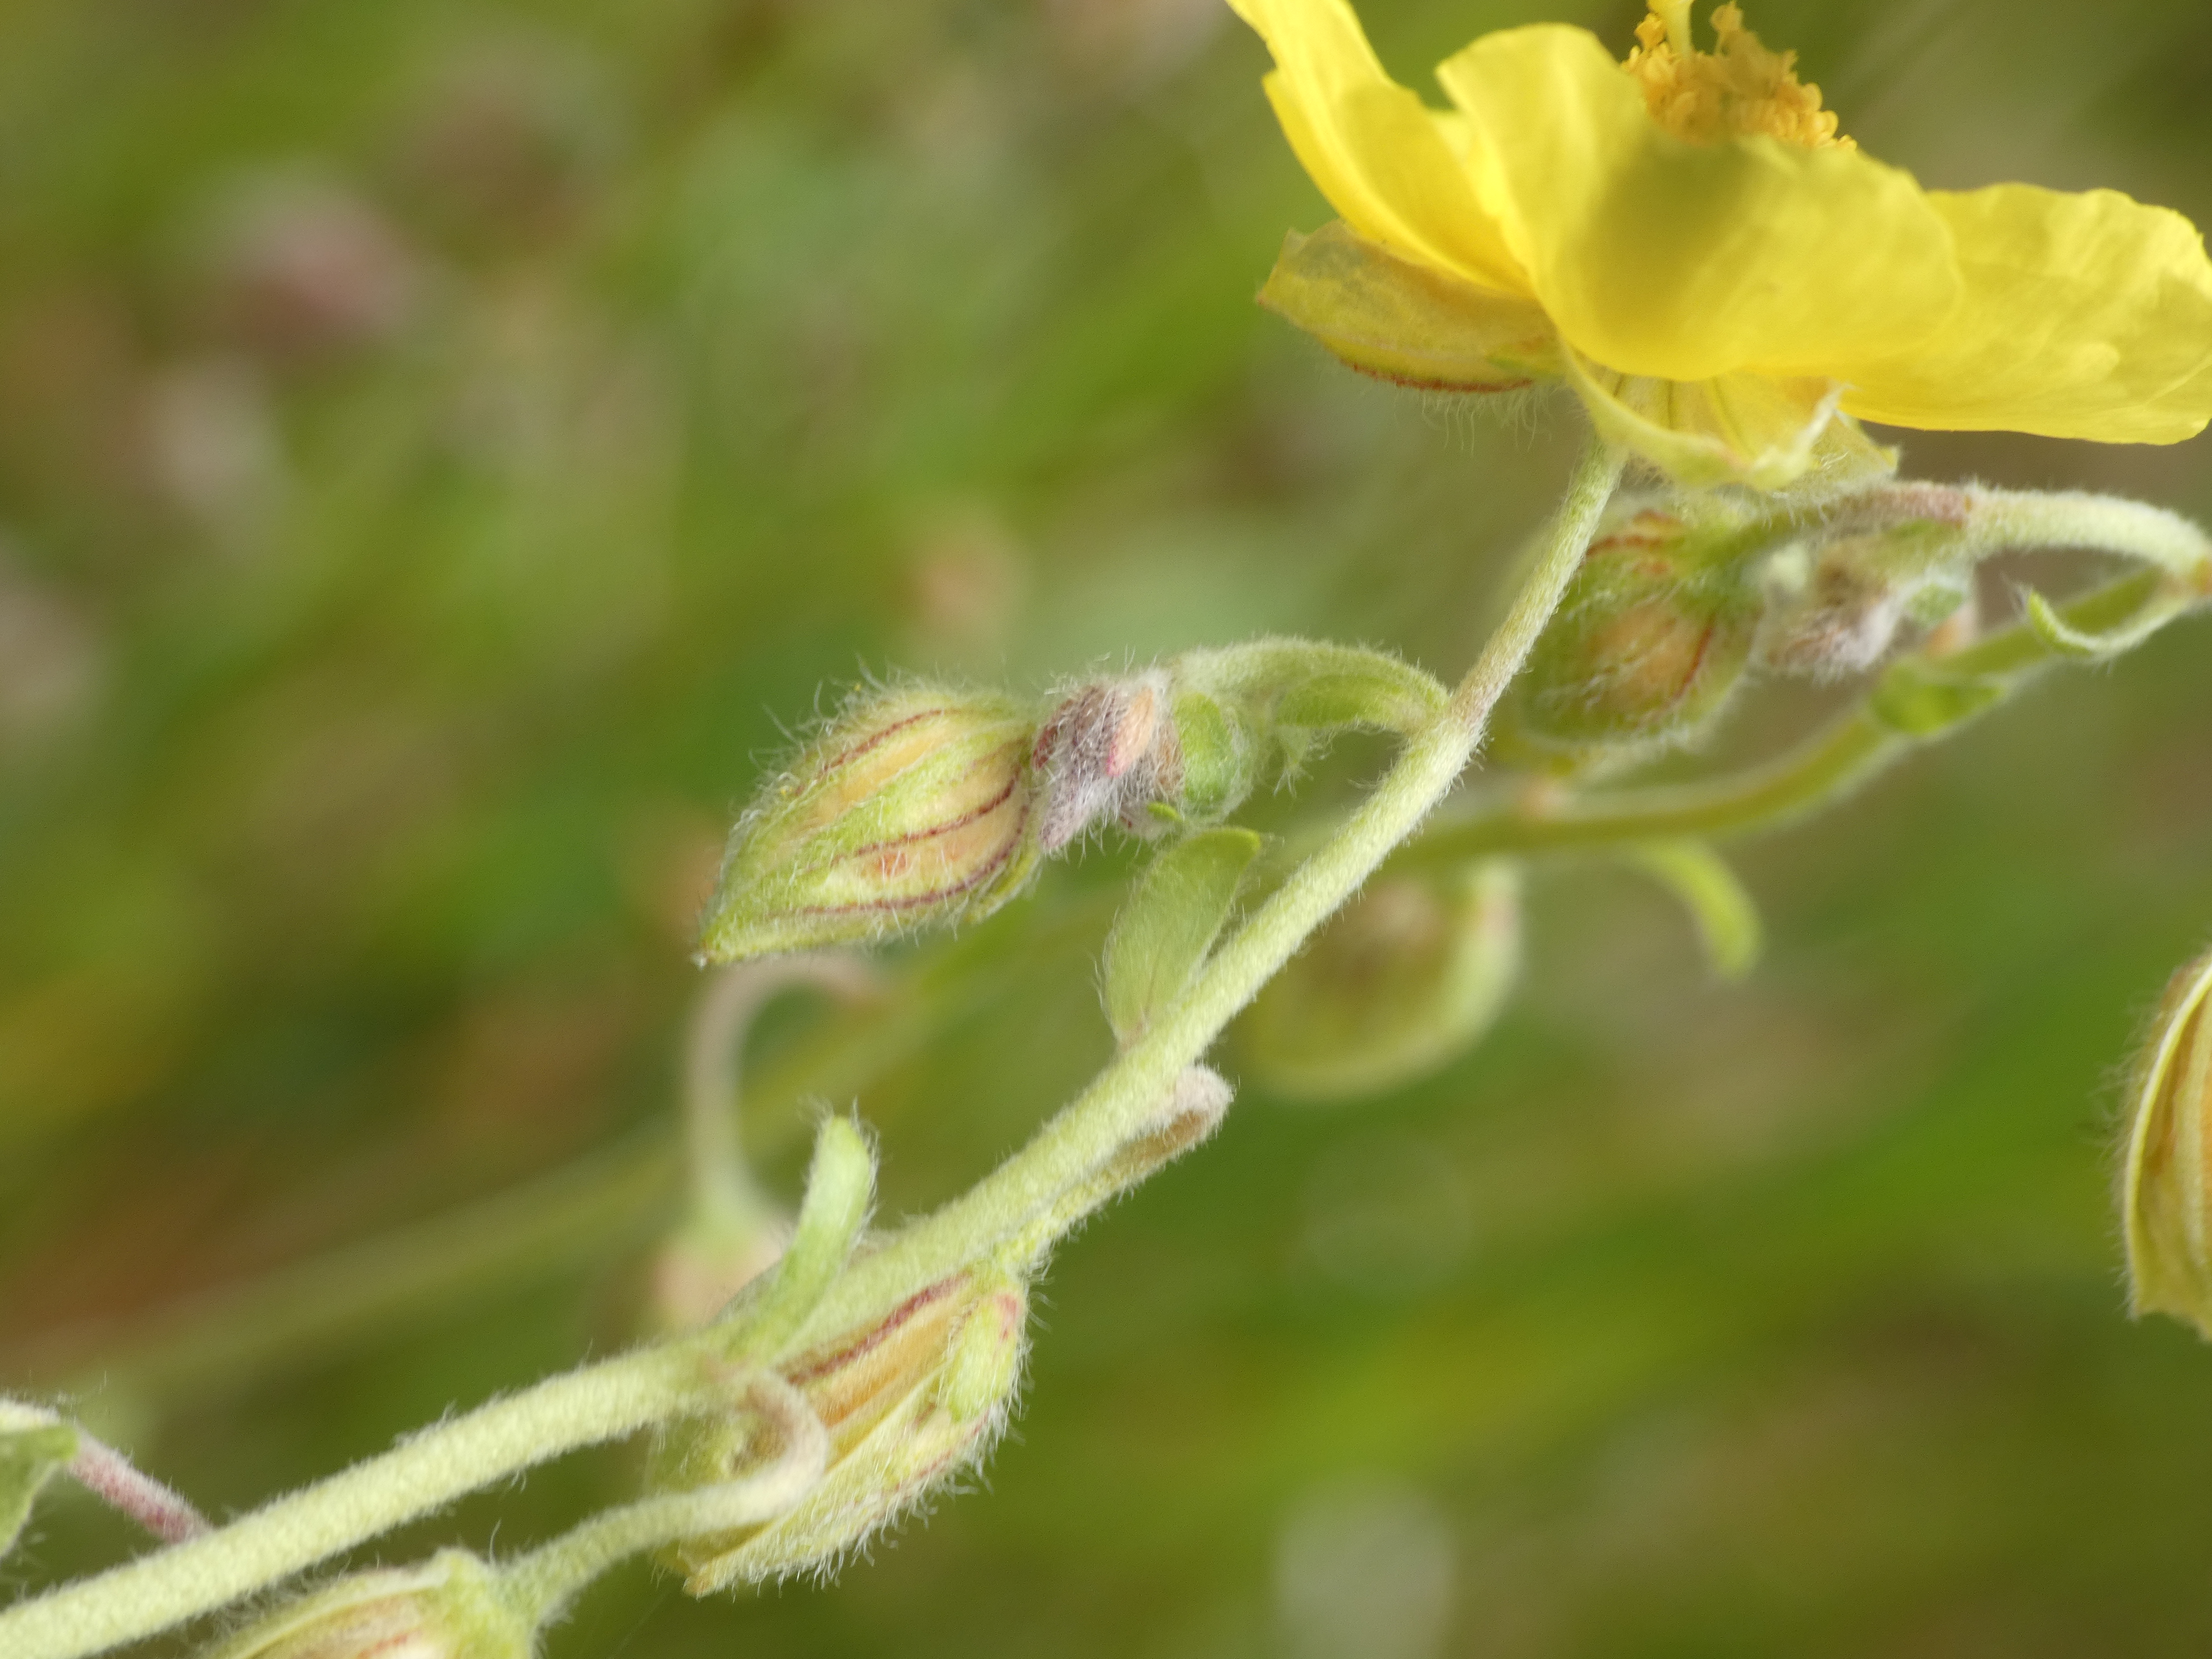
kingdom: Plantae
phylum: Tracheophyta
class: Magnoliopsida
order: Malvales
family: Cistaceae
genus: Helianthemum
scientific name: Helianthemum nummularium
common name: Bakke-soløje
